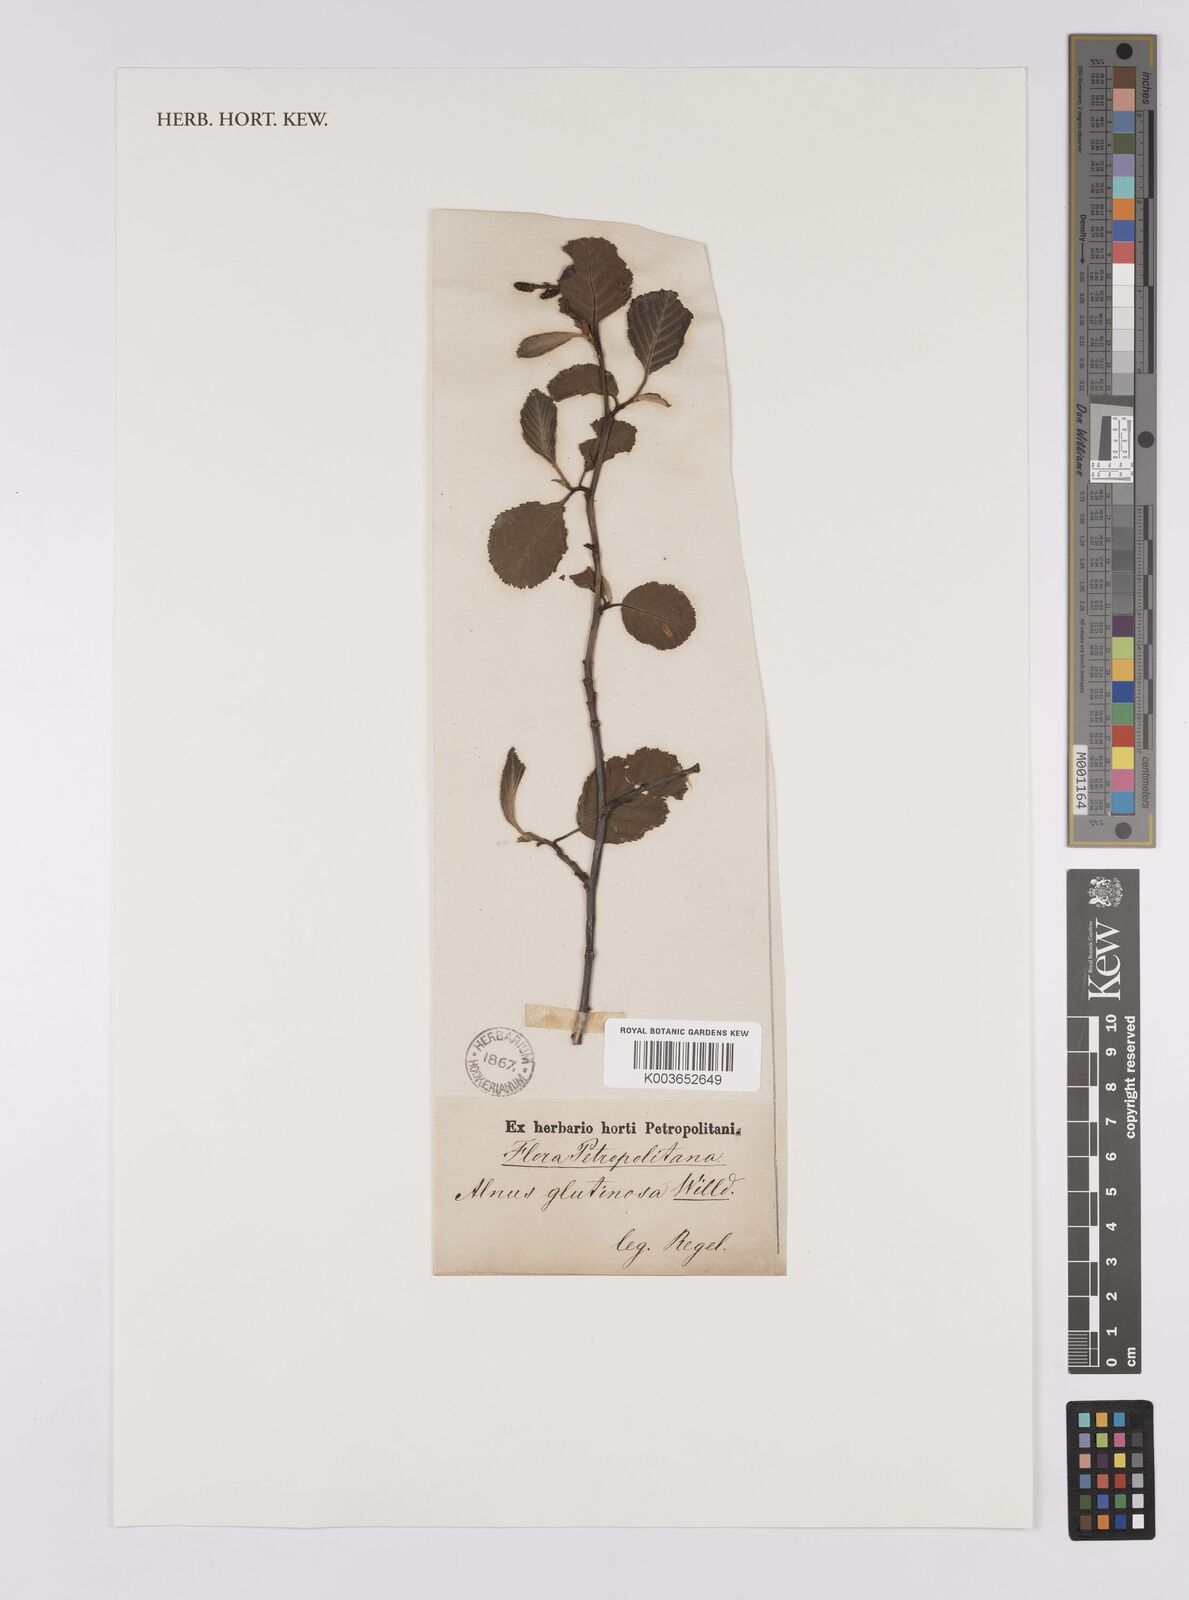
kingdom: Plantae
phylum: Tracheophyta
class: Magnoliopsida
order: Fagales
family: Betulaceae
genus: Alnus
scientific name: Alnus hirsuta
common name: Manchurian alder
